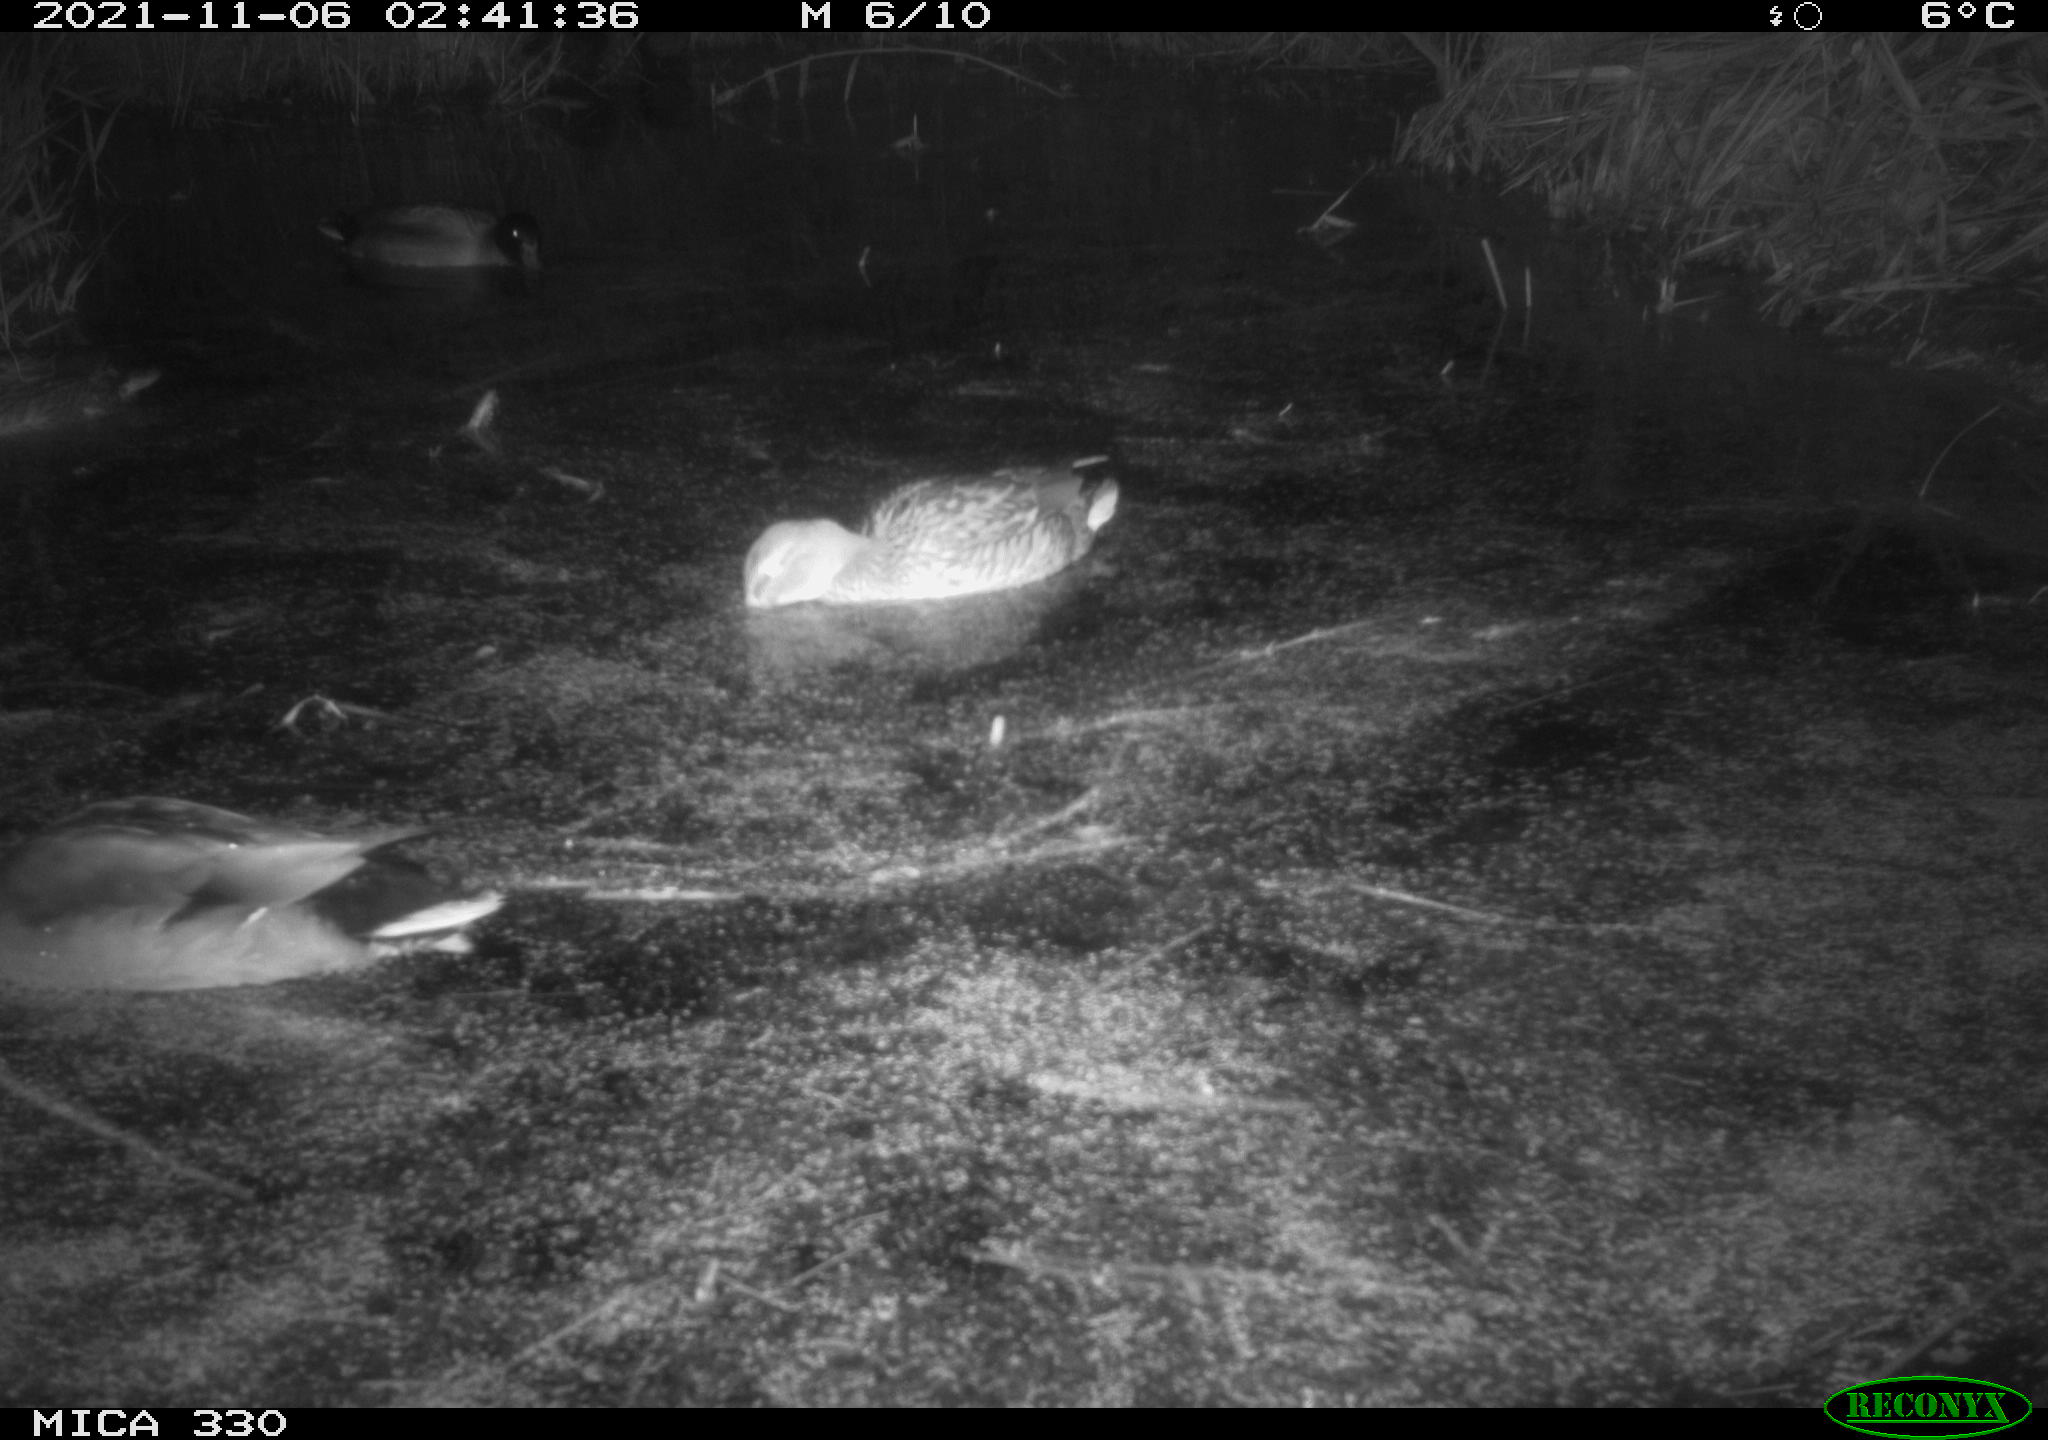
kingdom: Animalia
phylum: Chordata
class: Aves
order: Anseriformes
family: Anatidae
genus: Anas
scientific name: Anas platyrhynchos
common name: Mallard
